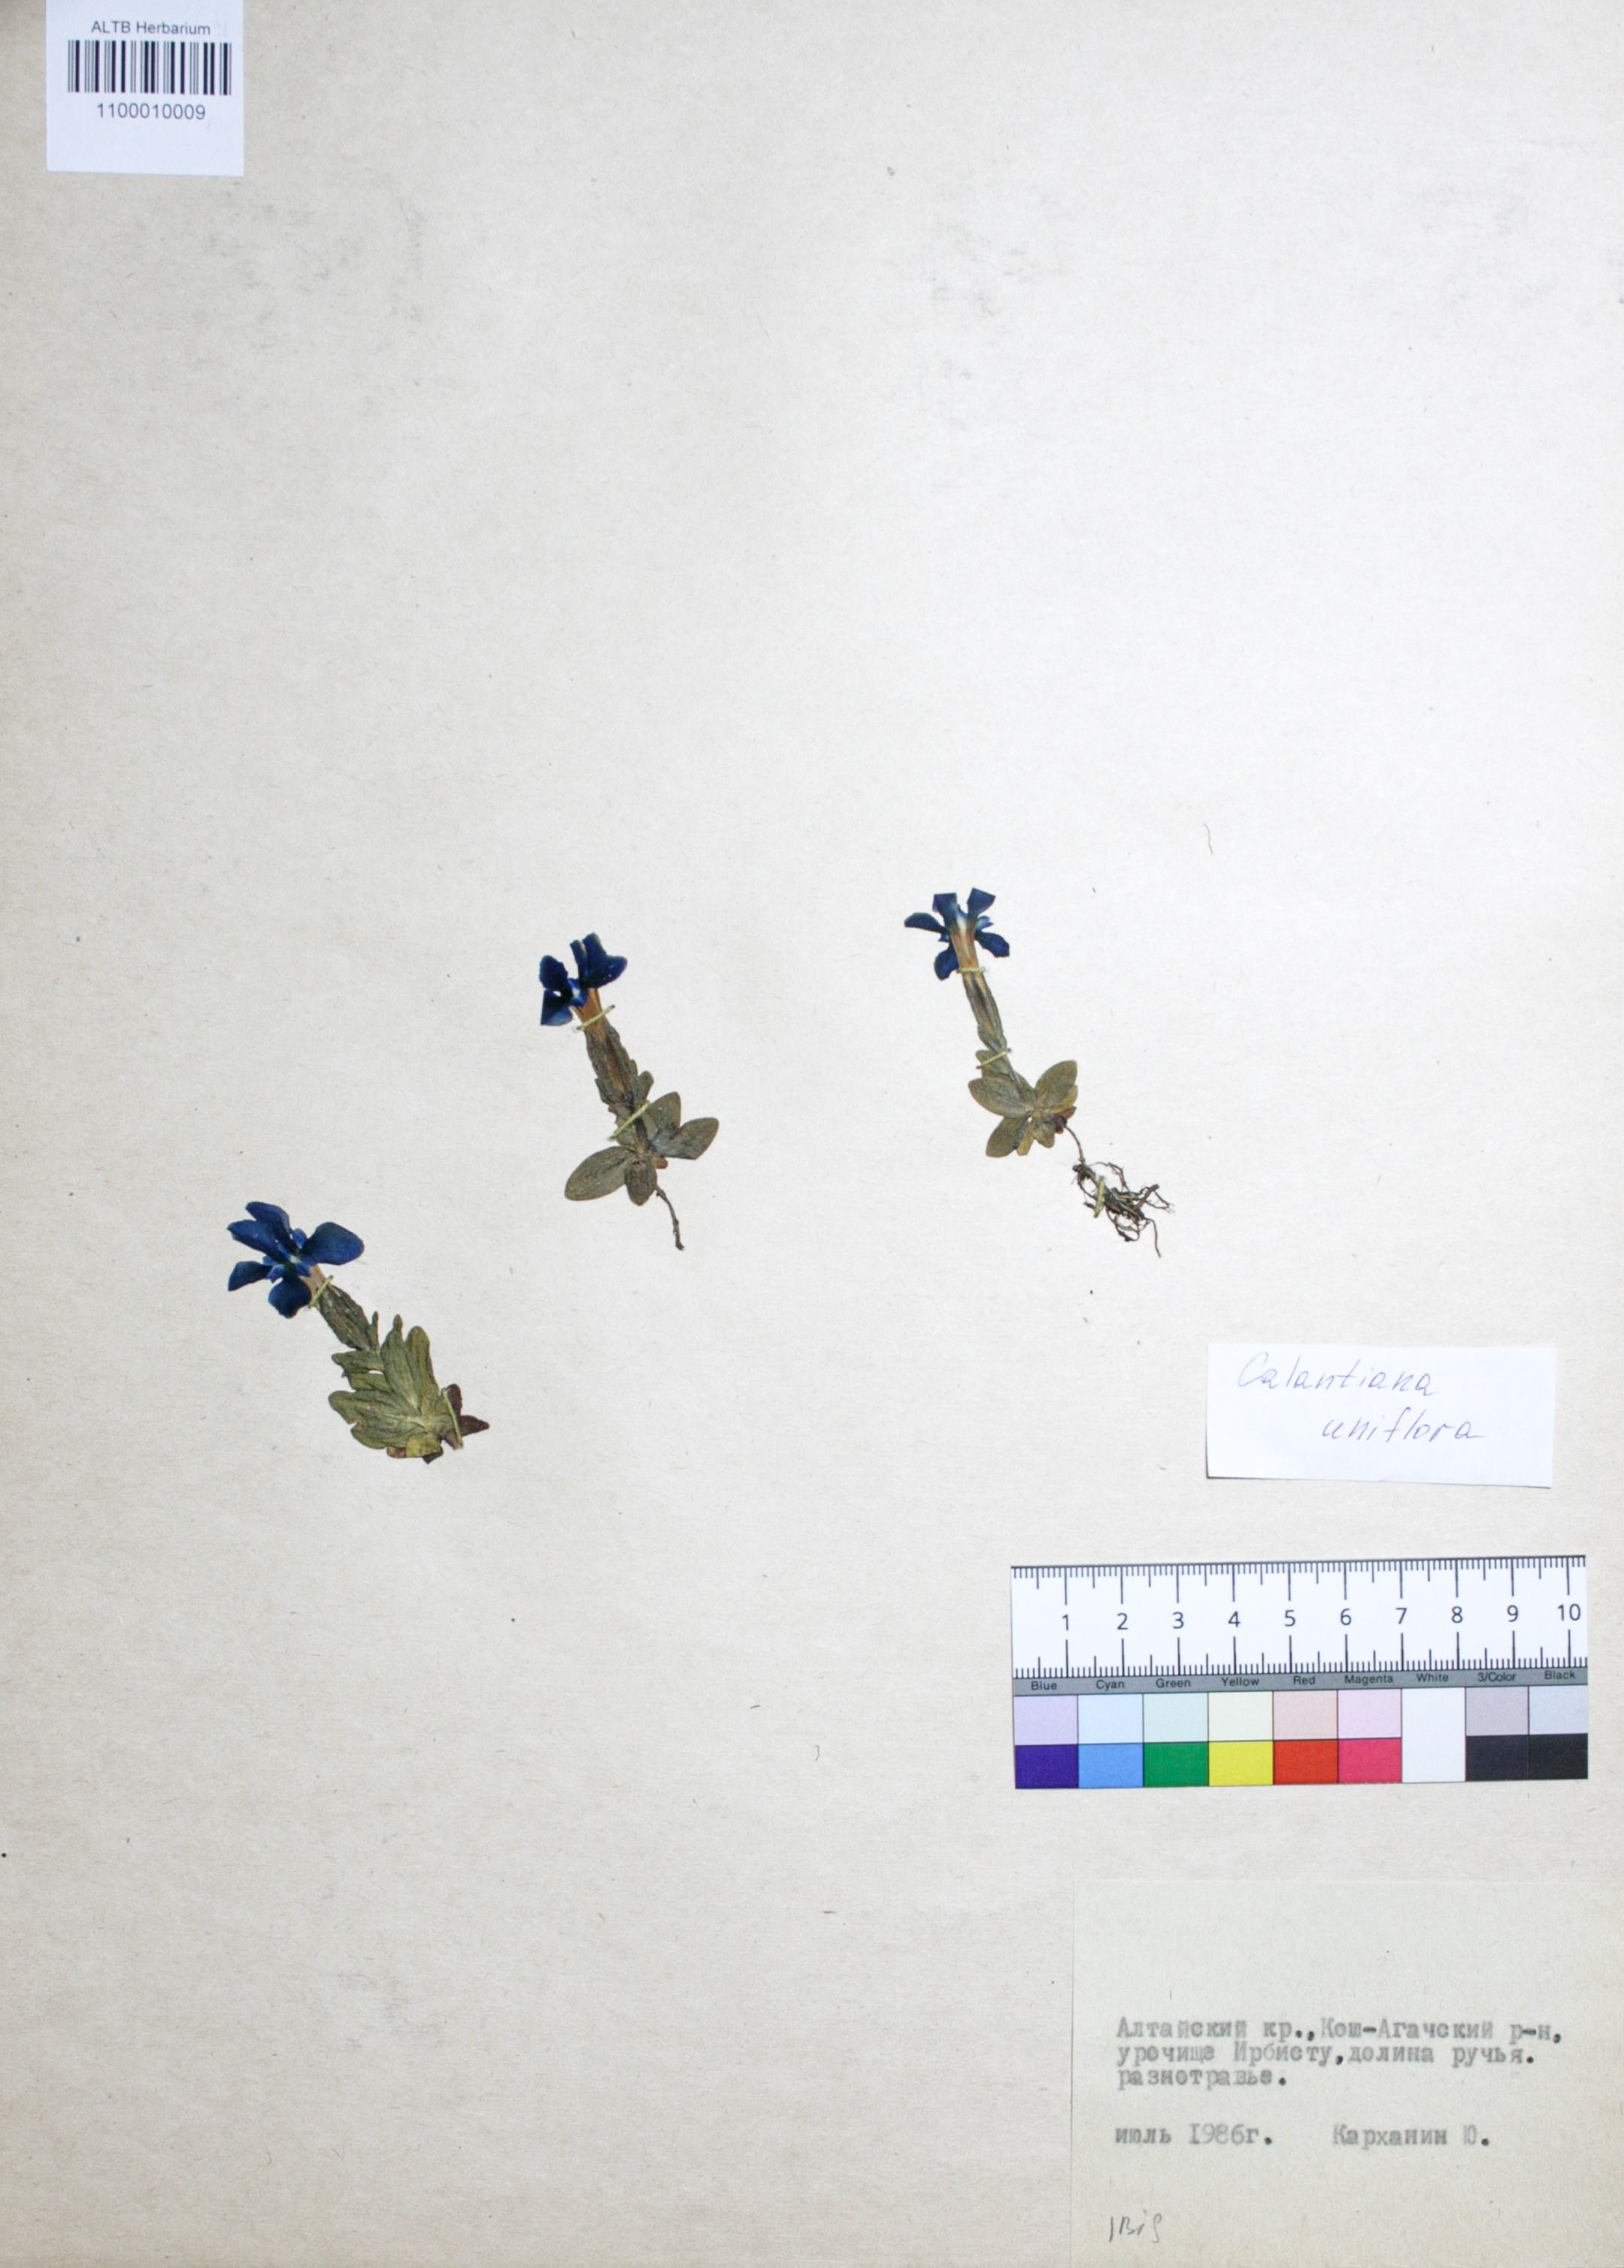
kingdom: Plantae
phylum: Tracheophyta
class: Magnoliopsida
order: Gentianales
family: Gentianaceae
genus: Gentiana
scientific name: Gentiana uniflora
